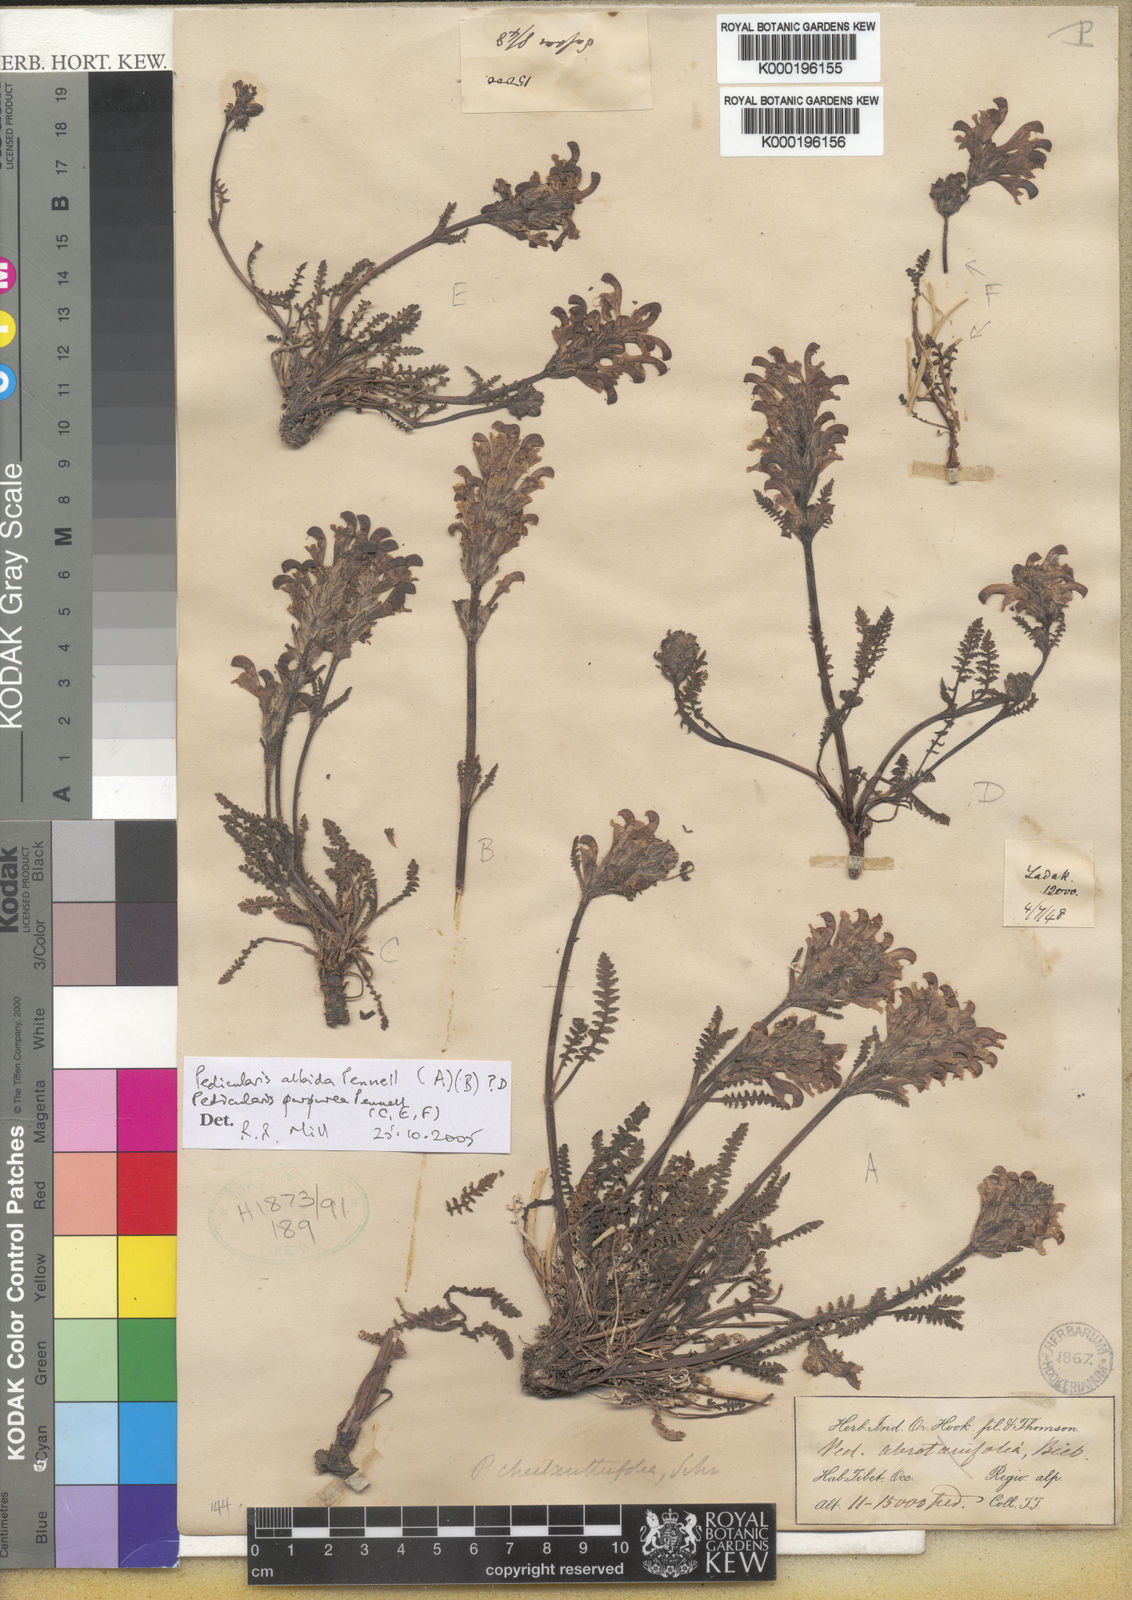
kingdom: Plantae
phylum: Tracheophyta
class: Magnoliopsida
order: Lamiales
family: Orobanchaceae
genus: Pedicularis
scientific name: Pedicularis albida
